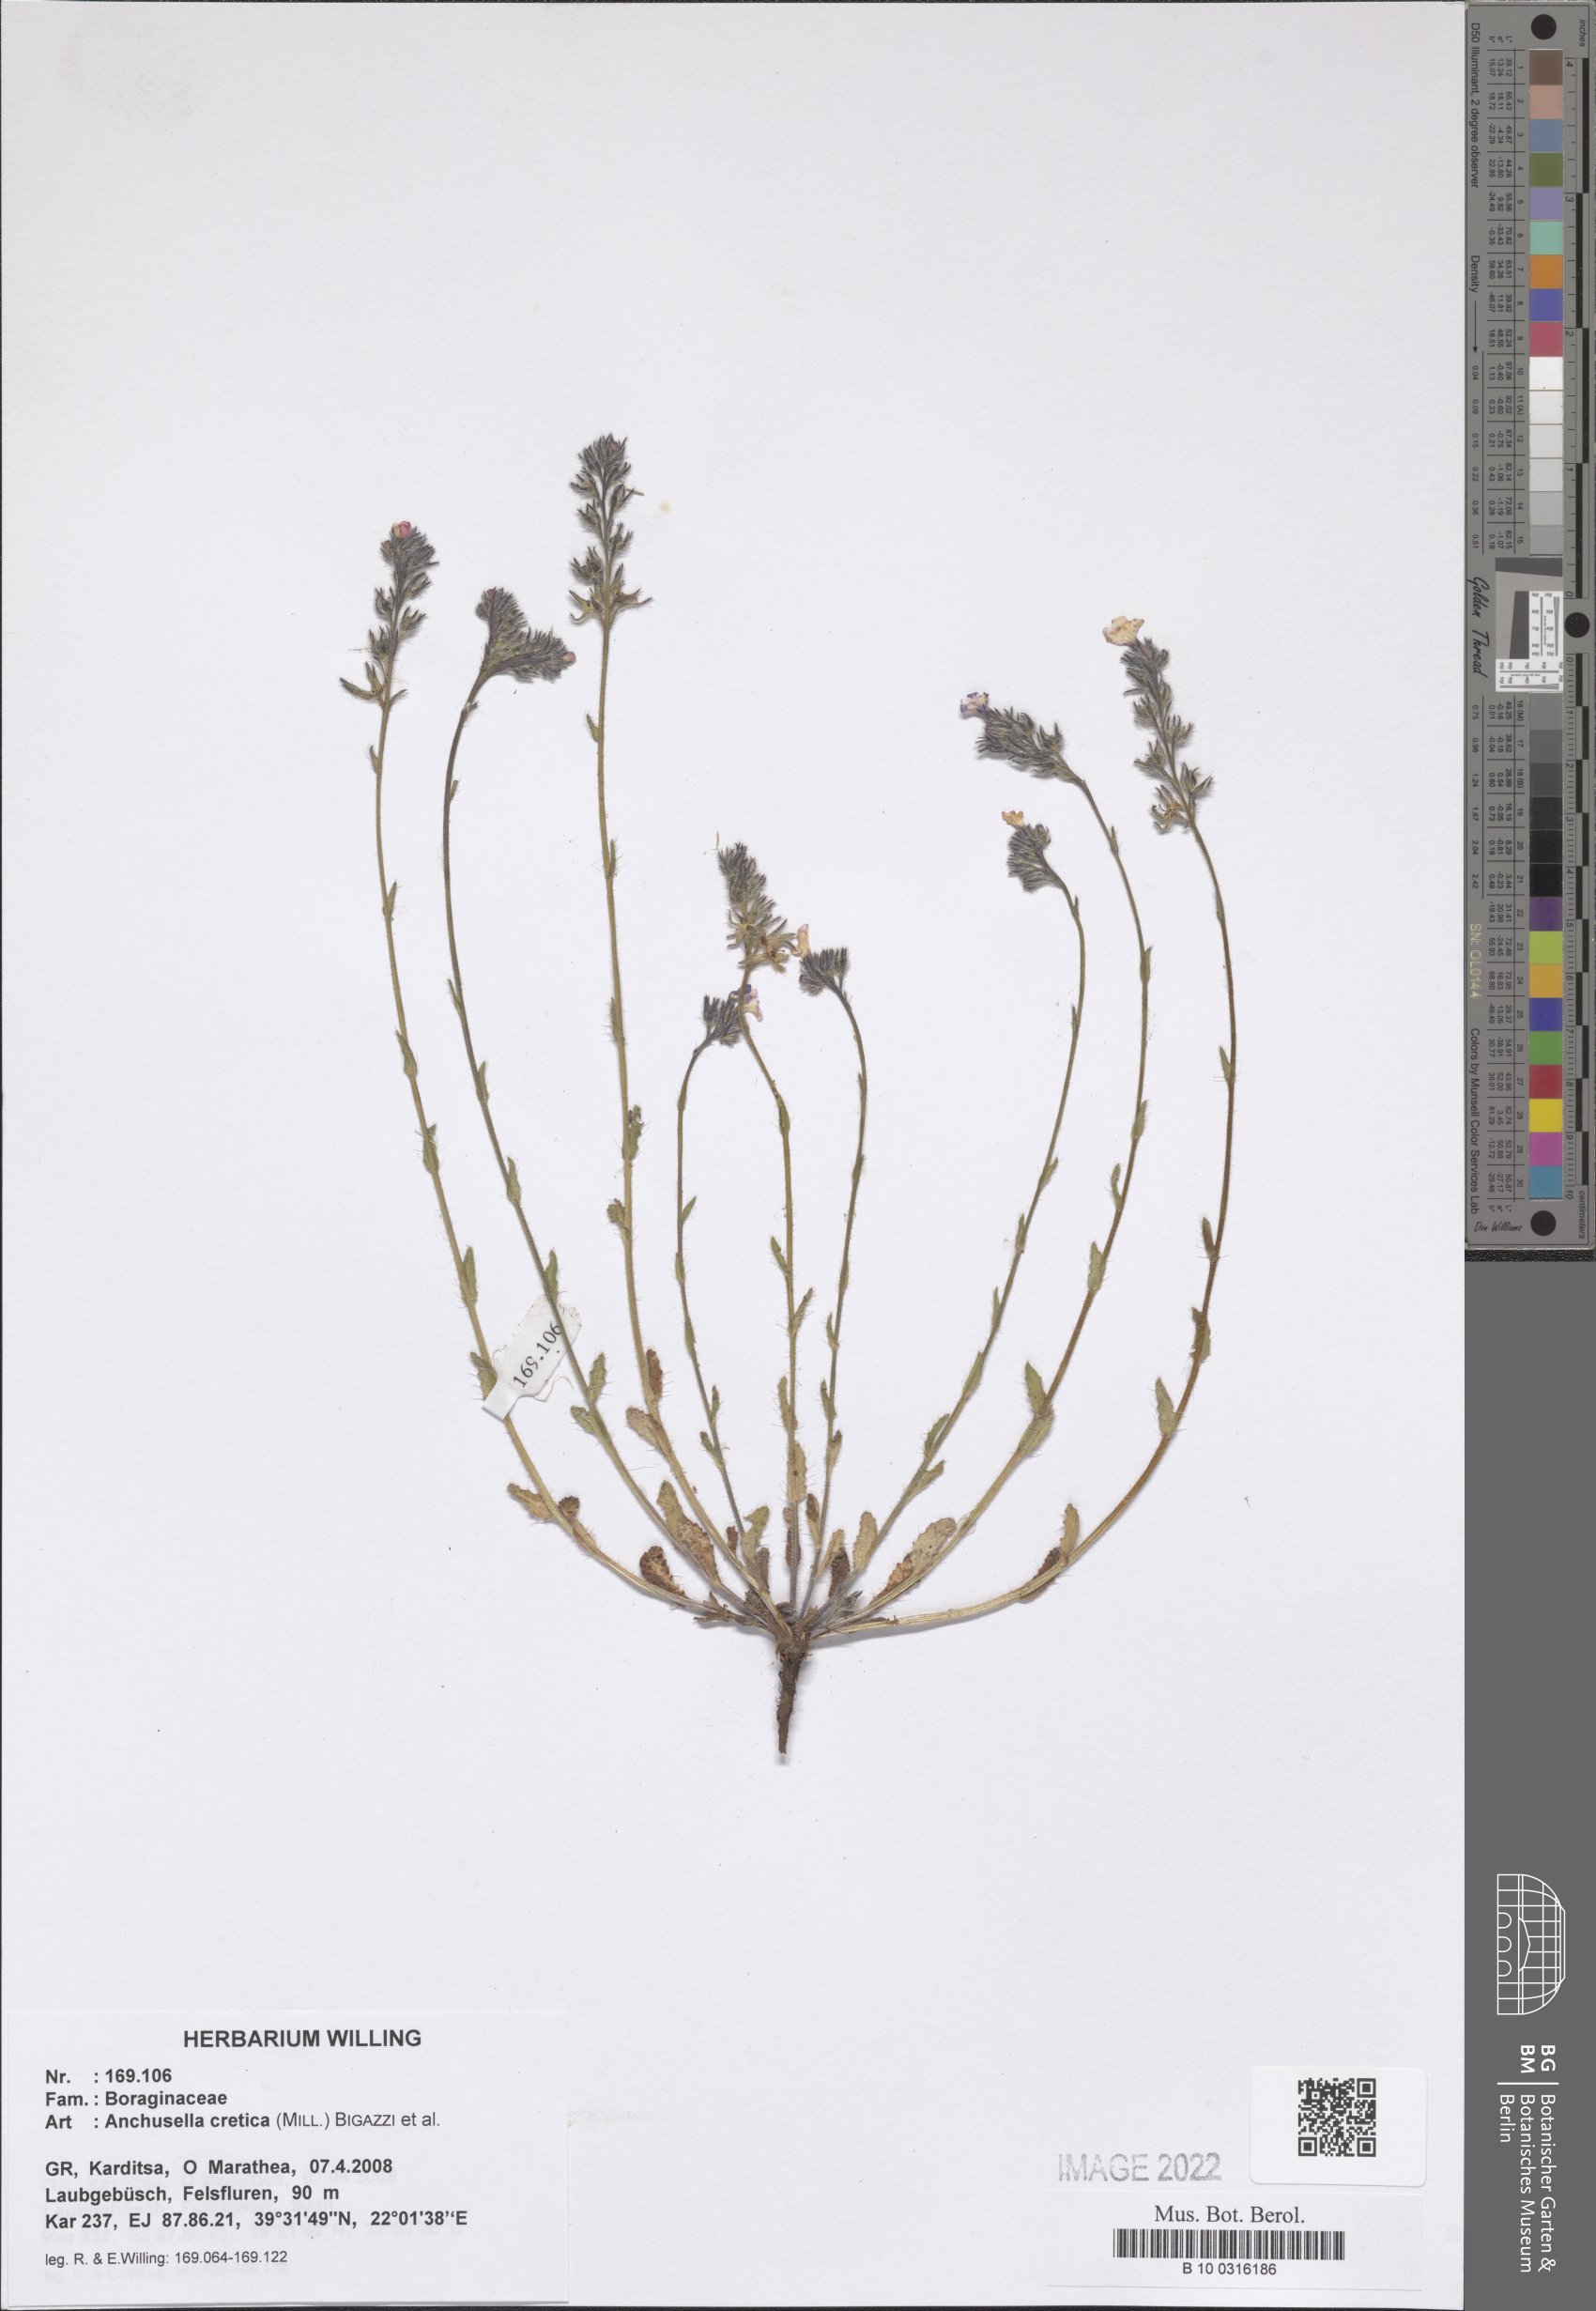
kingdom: Plantae
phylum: Tracheophyta
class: Magnoliopsida
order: Boraginales
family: Boraginaceae
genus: Anchusella
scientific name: Anchusella cretica
